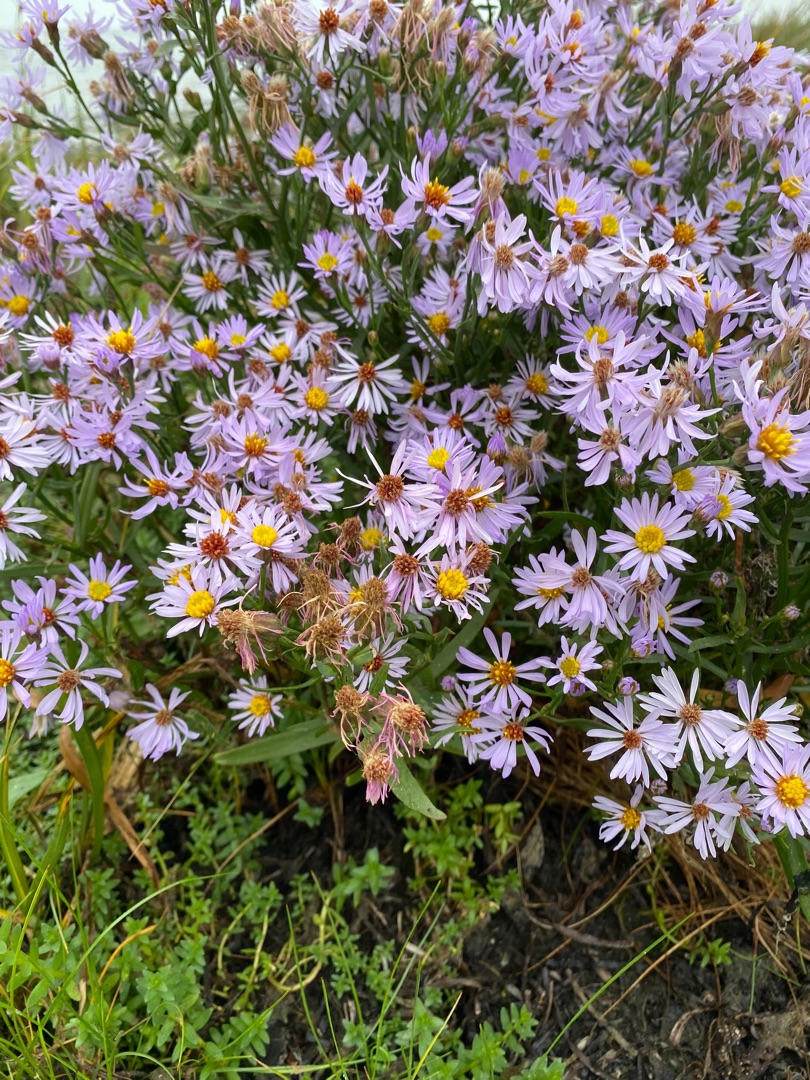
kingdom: Plantae
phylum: Tracheophyta
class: Magnoliopsida
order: Asterales
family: Asteraceae
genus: Tripolium
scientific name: Tripolium pannonicum
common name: Strandasters
